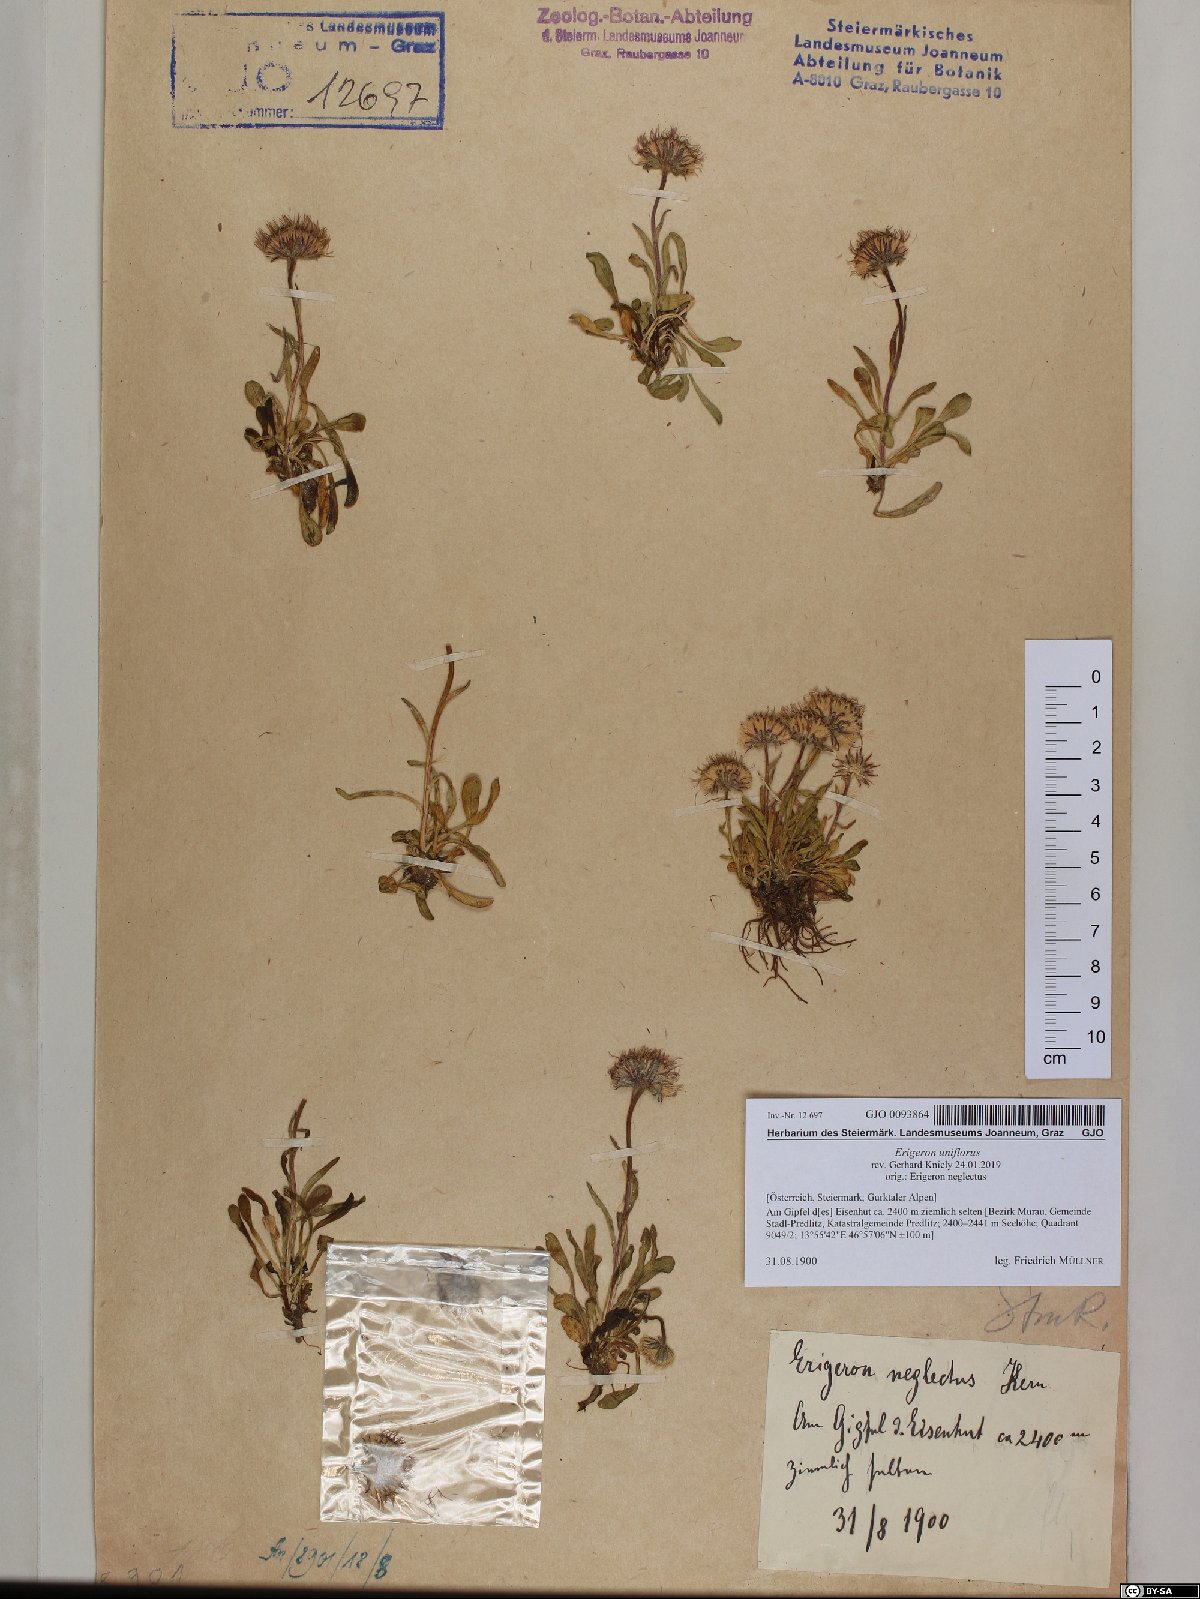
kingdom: Plantae
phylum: Tracheophyta
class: Magnoliopsida
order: Asterales
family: Asteraceae
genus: Erigeron
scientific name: Erigeron uniflorus
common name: Northern daisy
